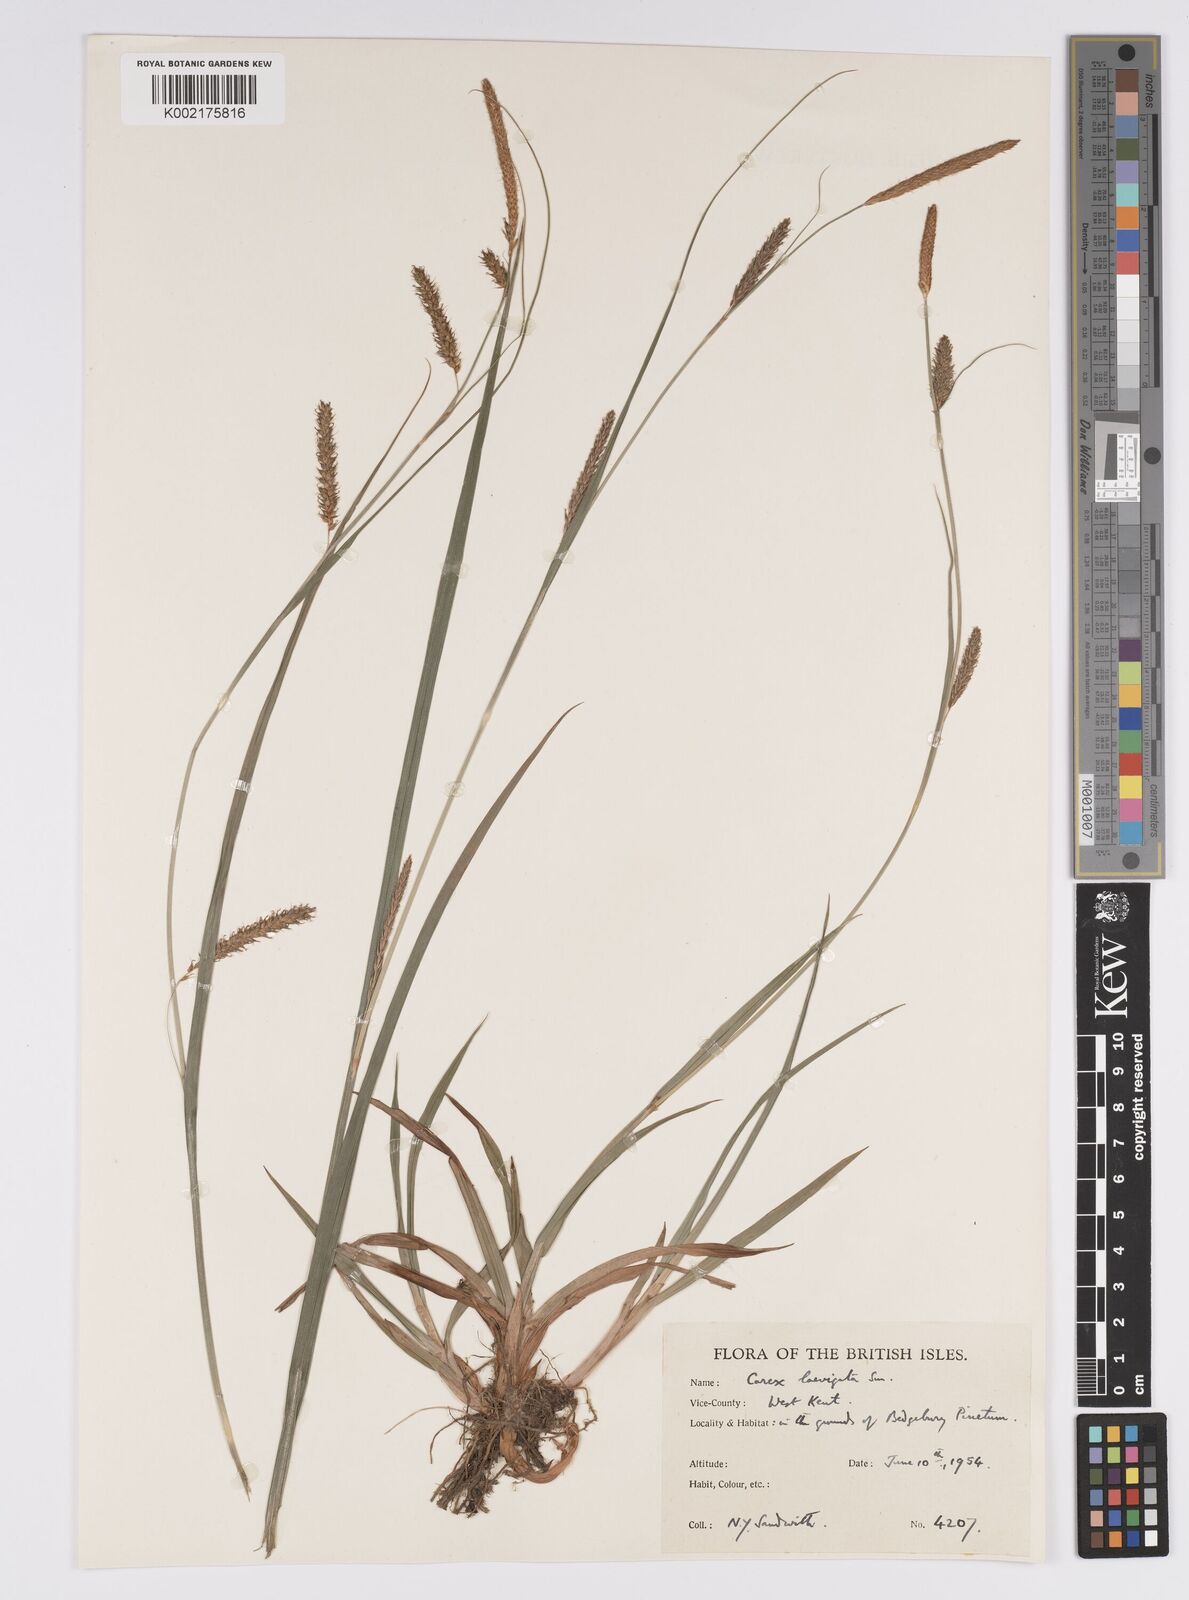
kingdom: Plantae
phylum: Tracheophyta
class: Liliopsida
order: Poales
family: Cyperaceae
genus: Carex
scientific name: Carex laevigata
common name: Smooth-stalked sedge
